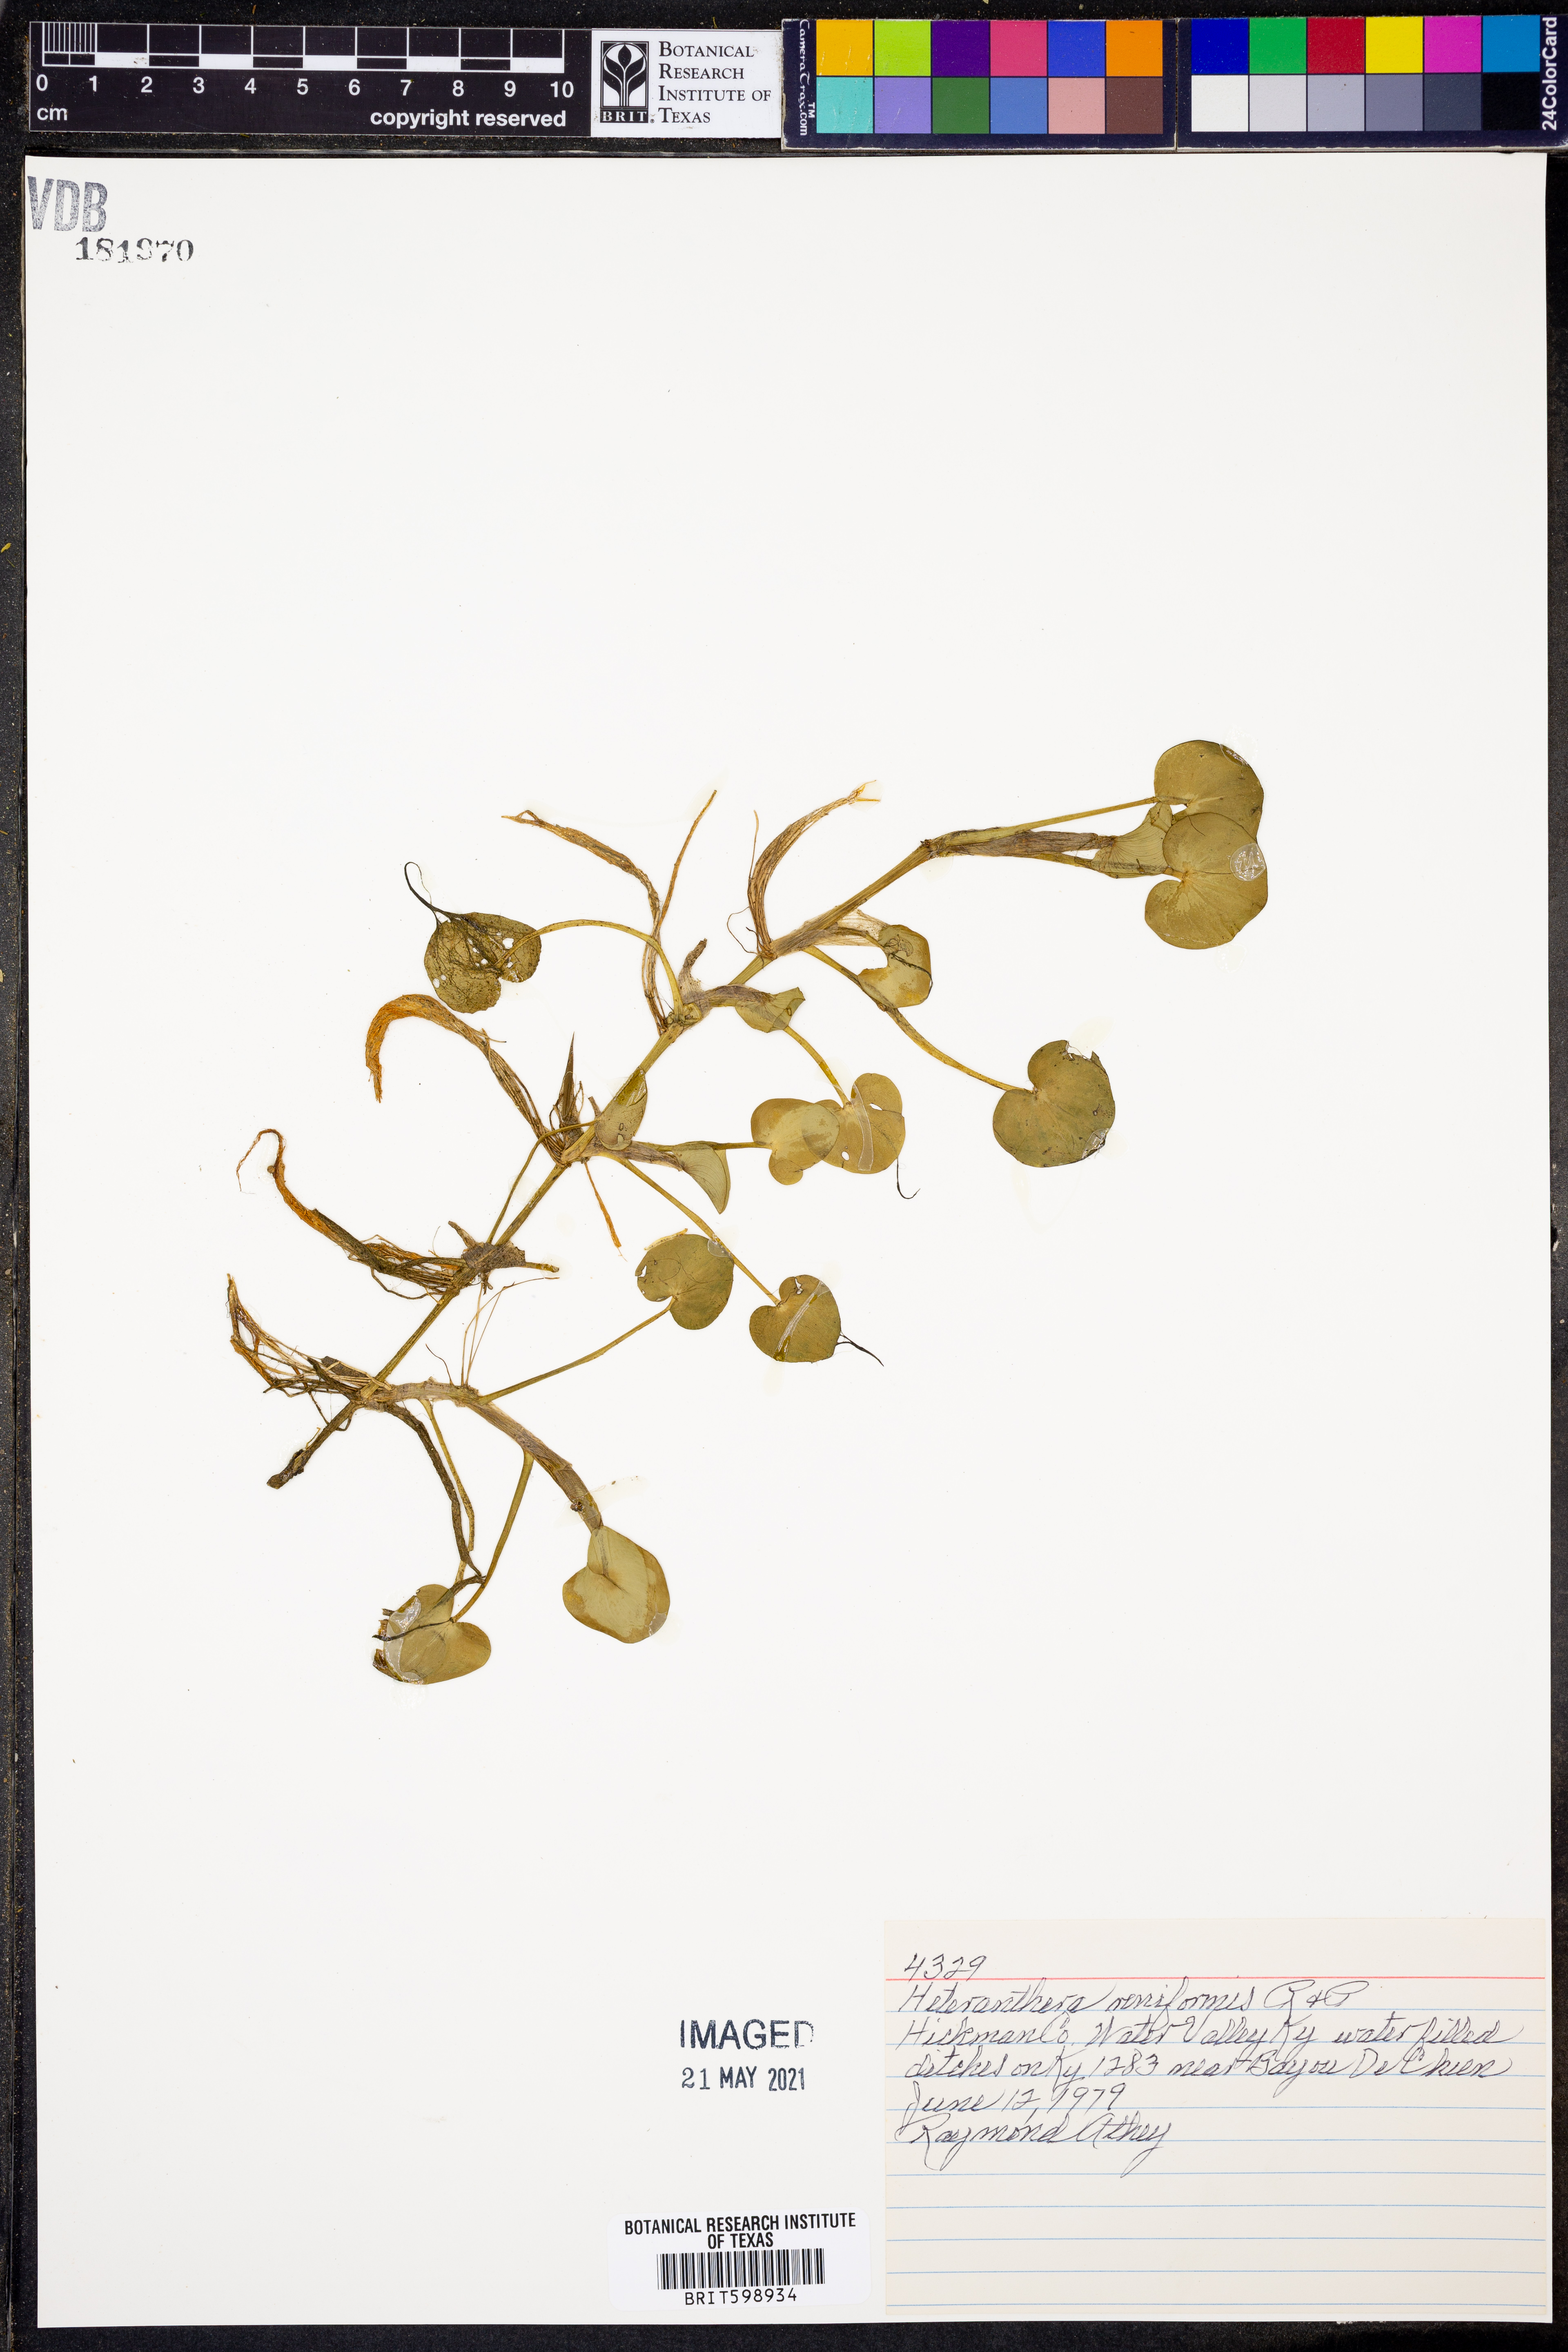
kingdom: Plantae
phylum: Tracheophyta
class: Liliopsida
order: Commelinales
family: Pontederiaceae
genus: Heteranthera
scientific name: Heteranthera reniformis
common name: Kidneyleaf mudplantain
